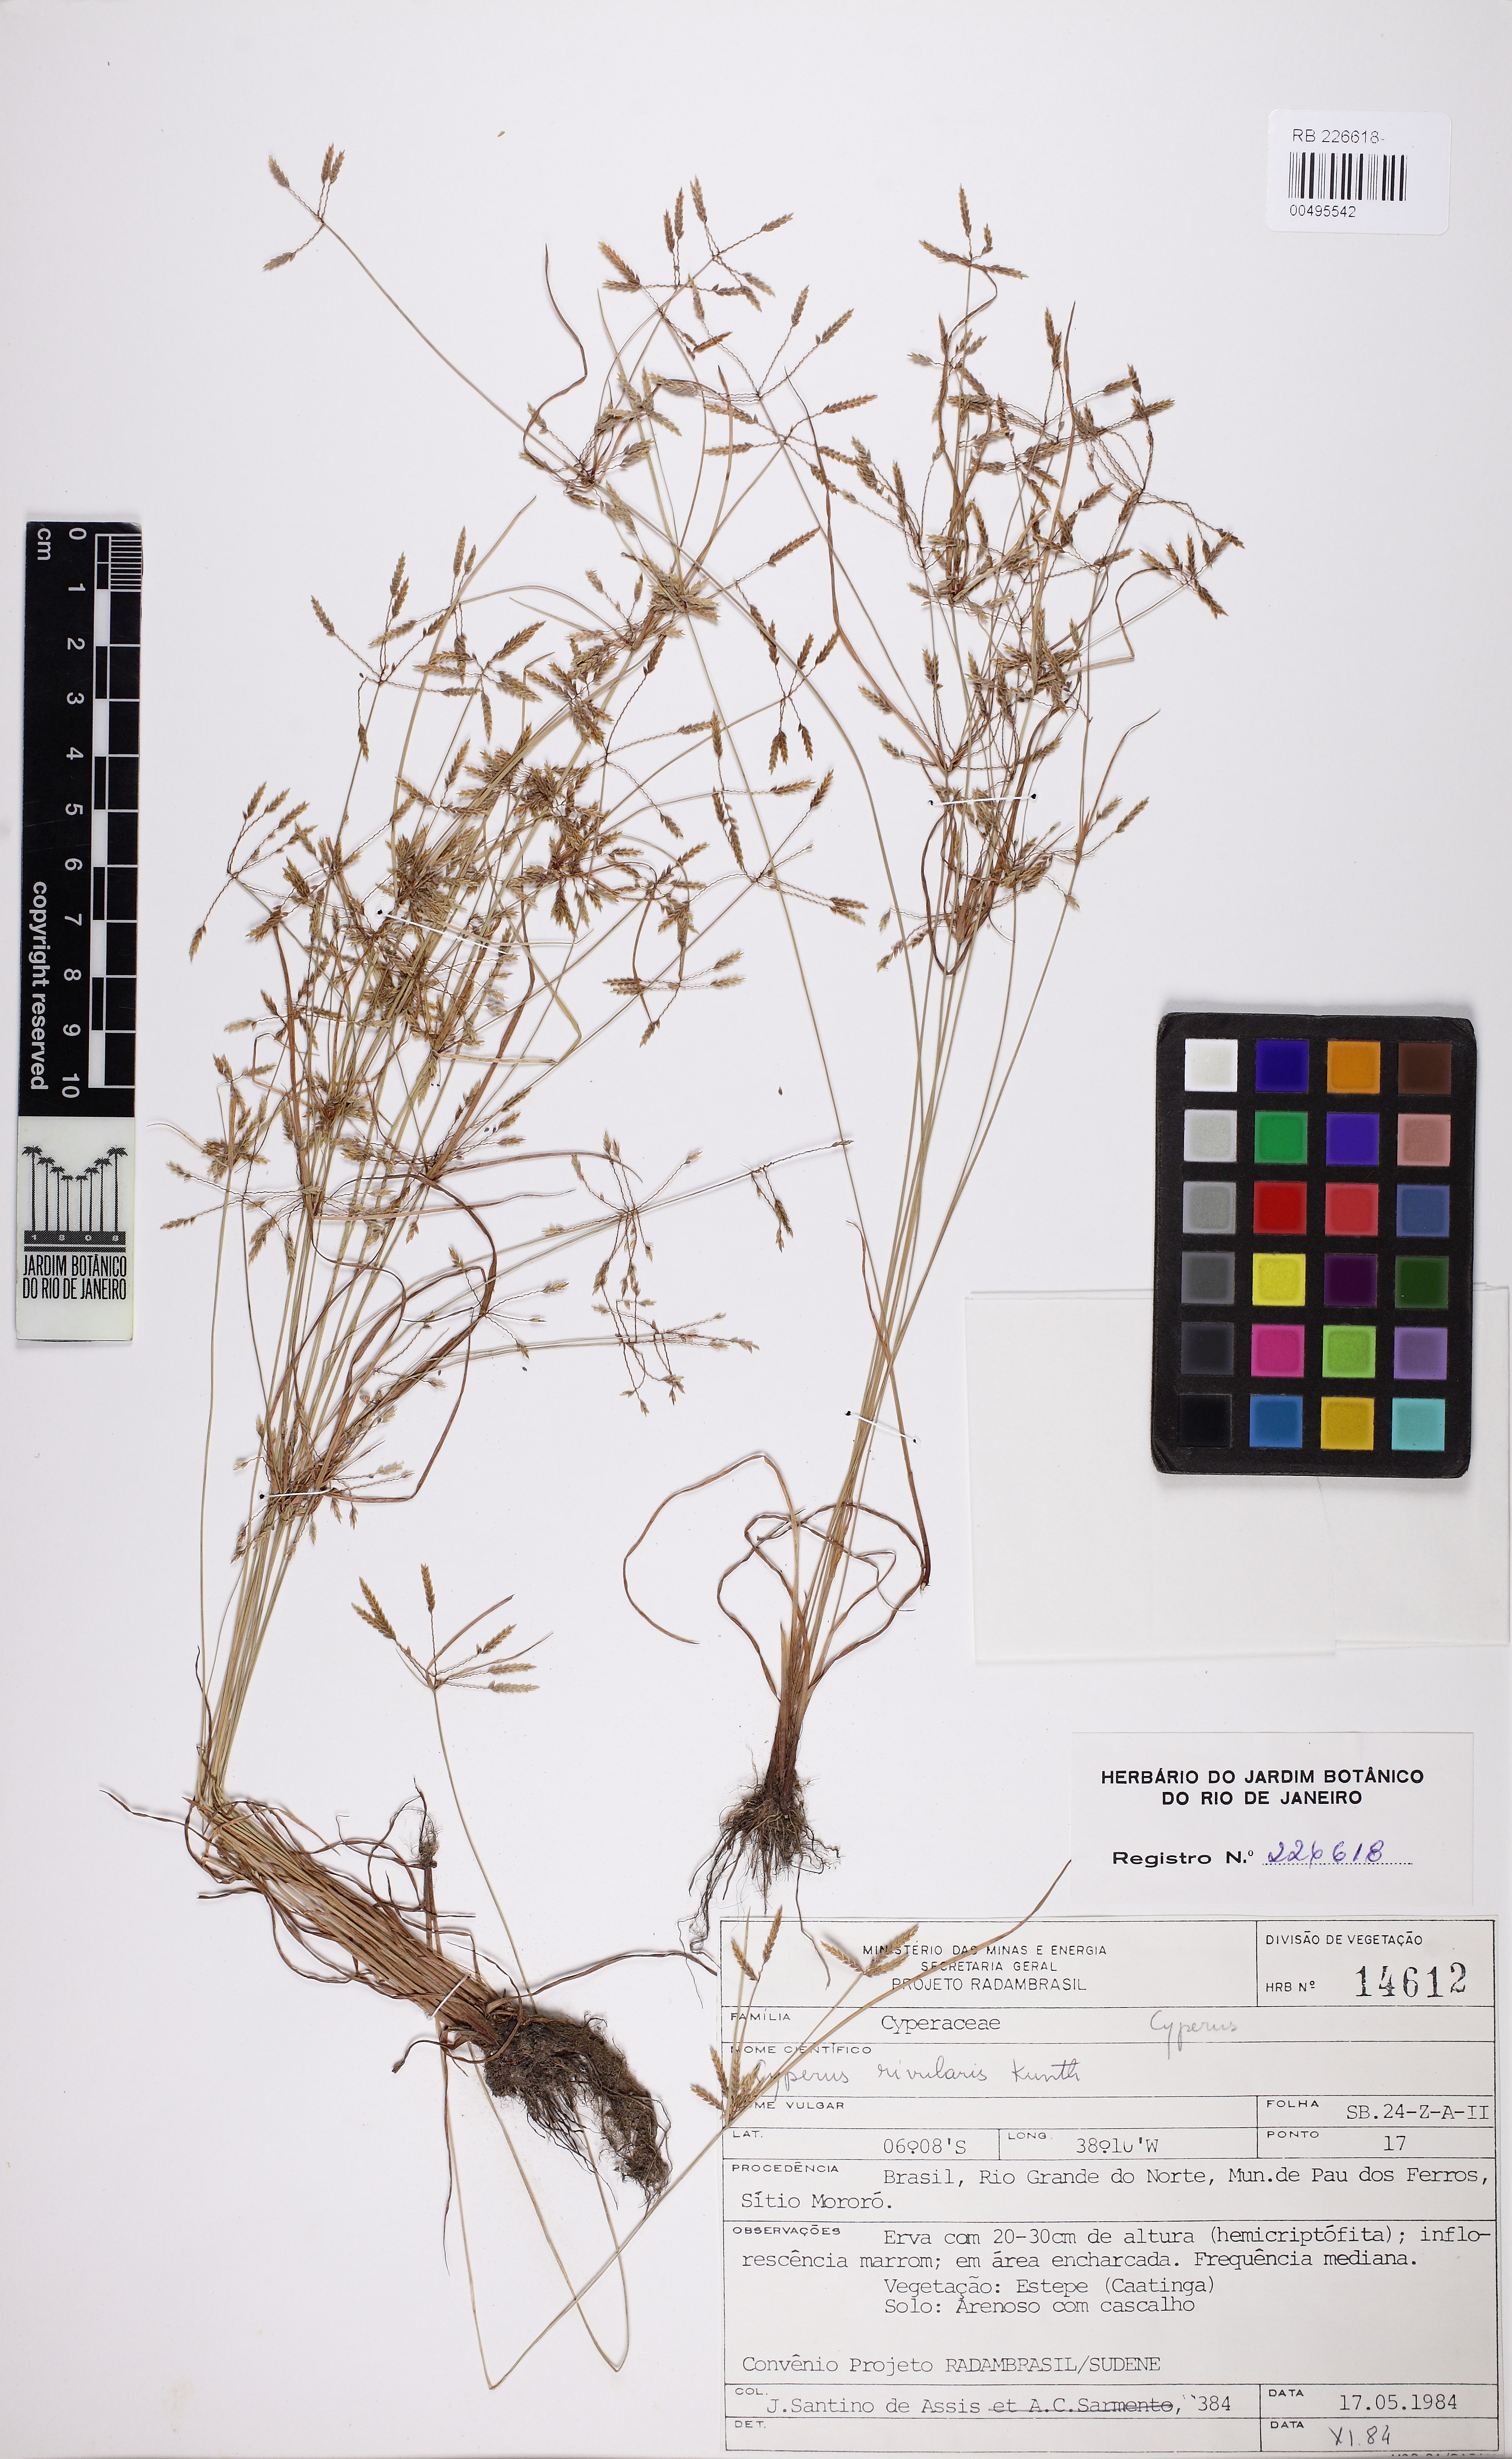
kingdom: Plantae
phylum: Tracheophyta
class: Liliopsida
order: Poales
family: Cyperaceae
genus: Cyperus
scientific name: Cyperus fugax
